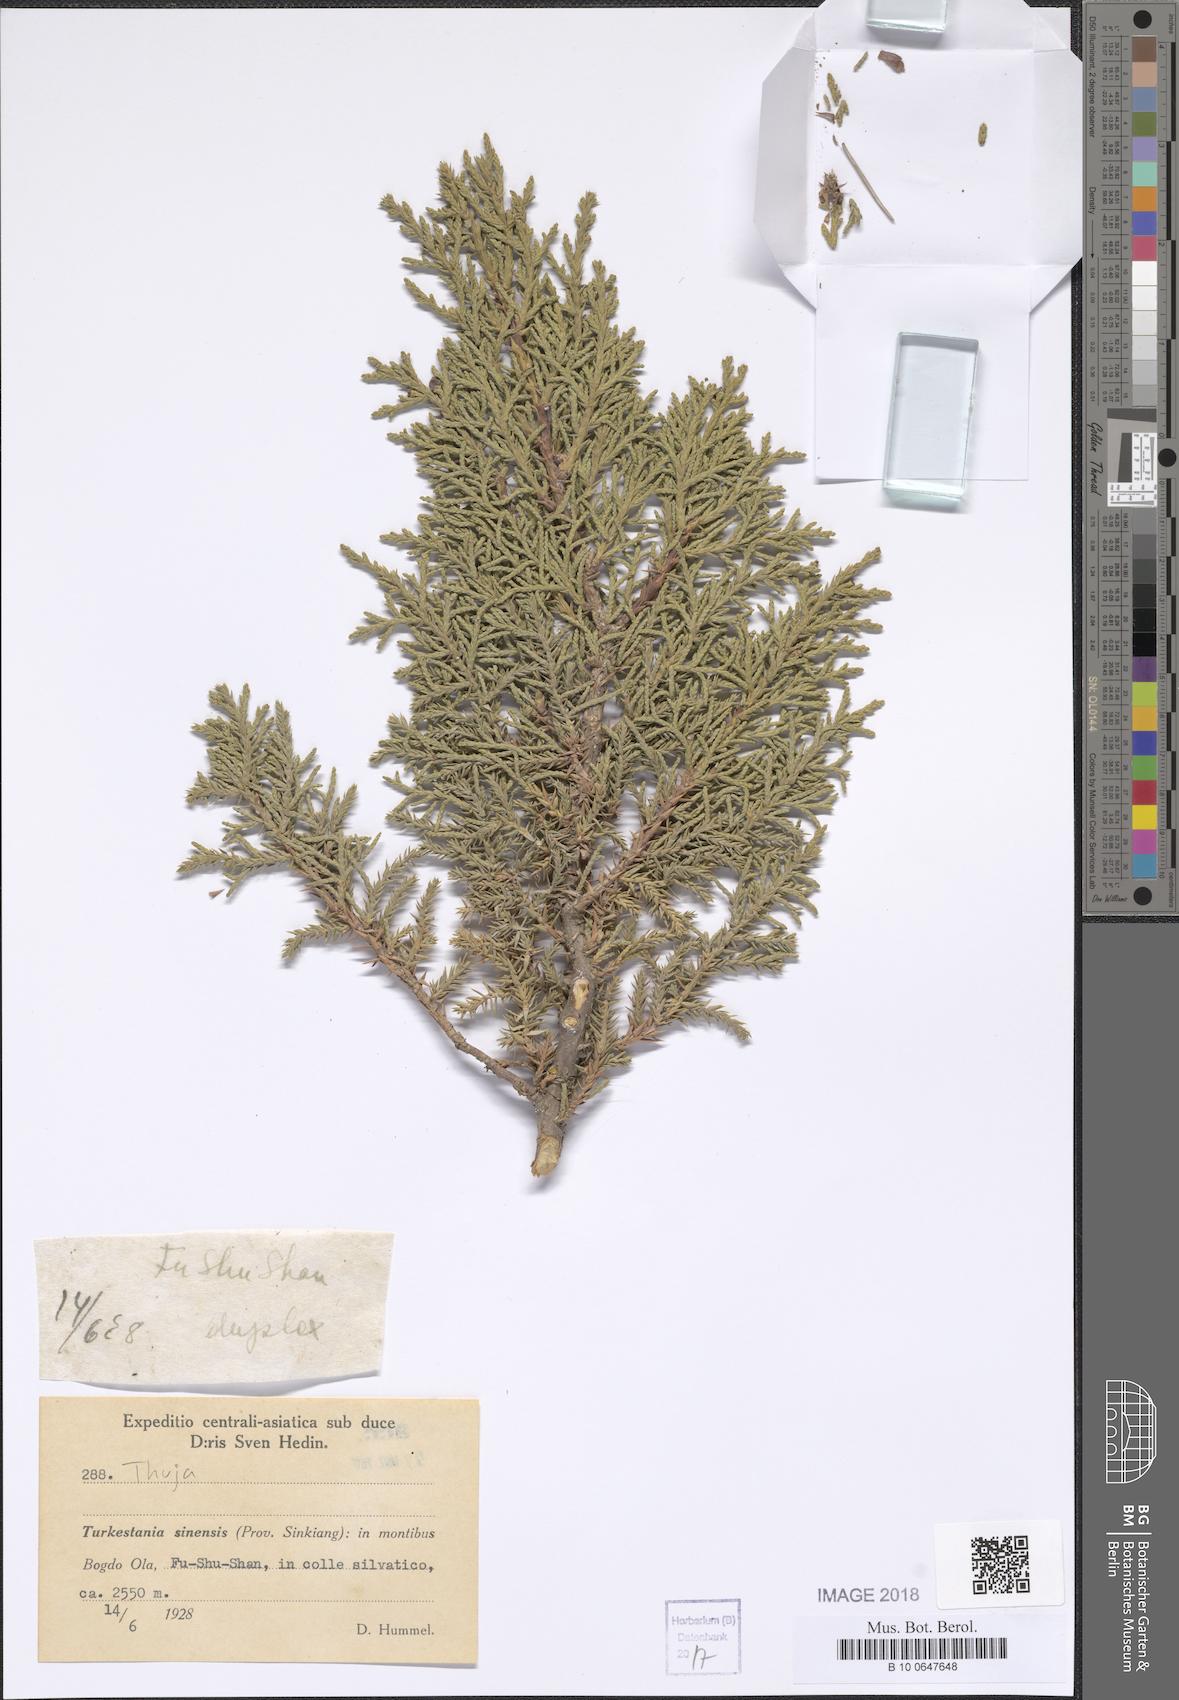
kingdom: Plantae
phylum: Tracheophyta
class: Pinopsida
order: Pinales
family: Cupressaceae
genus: Thuja
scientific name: Thuja
